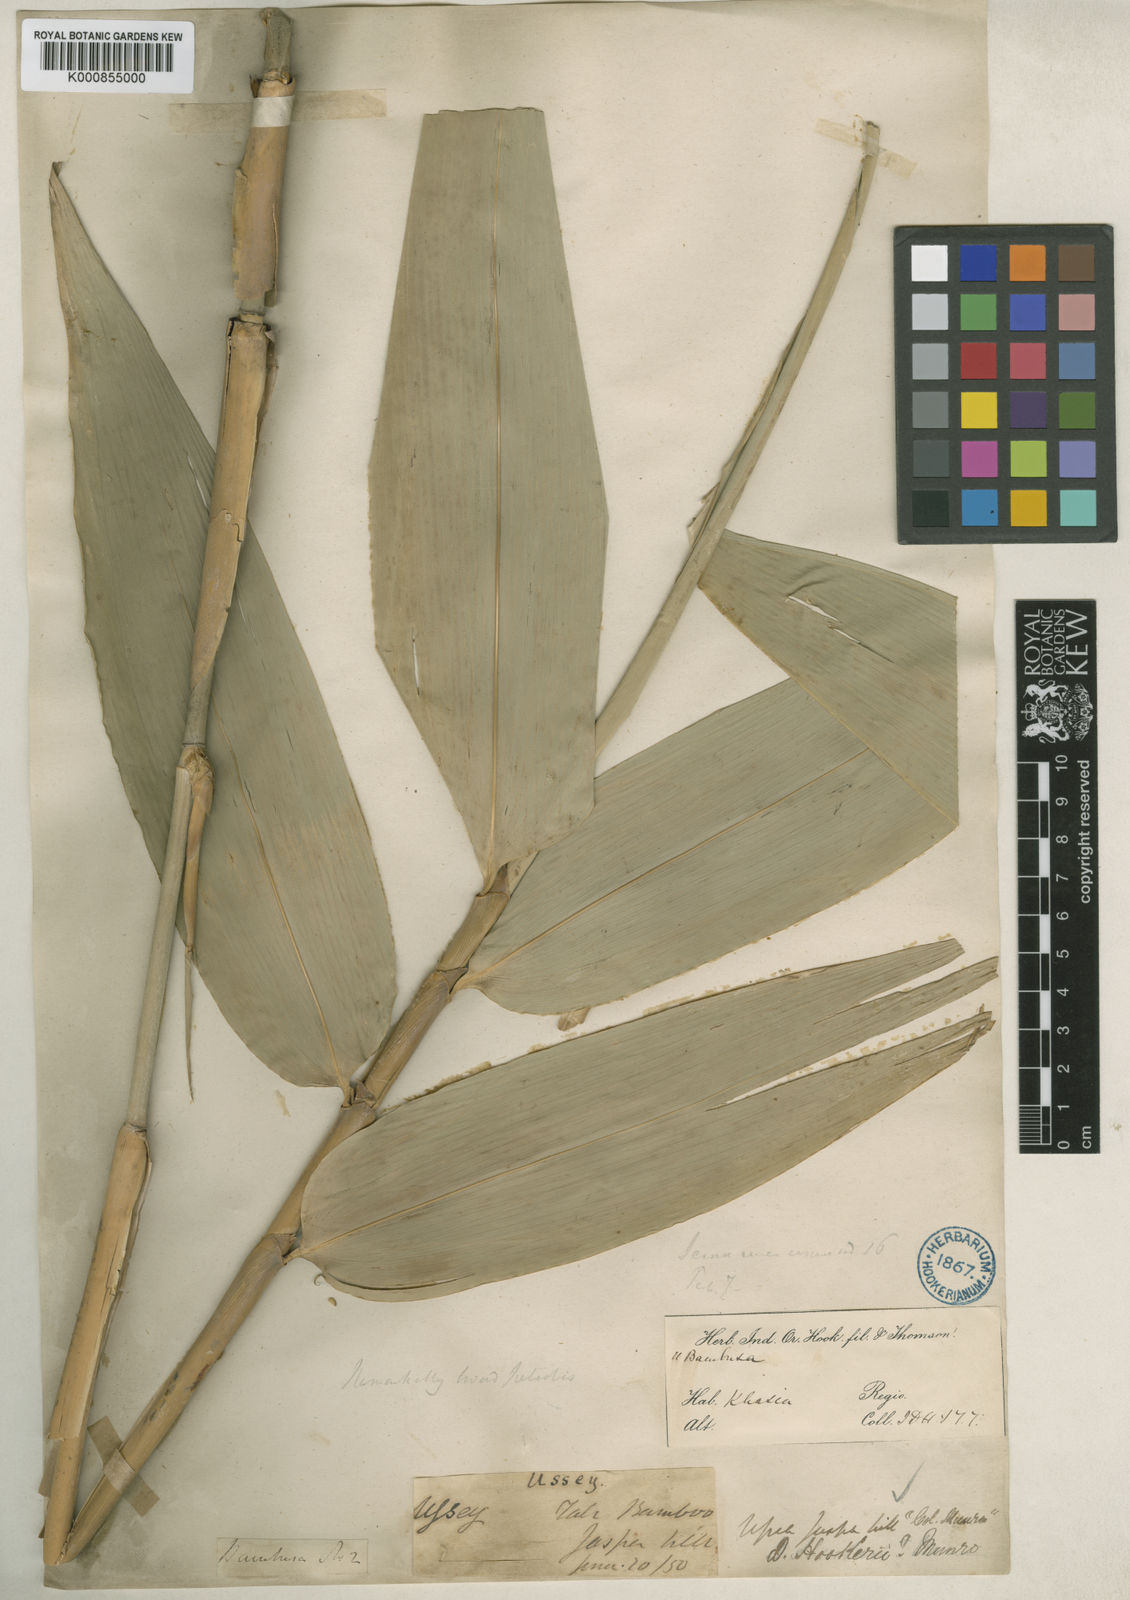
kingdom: Plantae
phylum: Tracheophyta
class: Liliopsida
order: Poales
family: Poaceae
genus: Dendrocalamus
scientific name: Dendrocalamus hookeri
